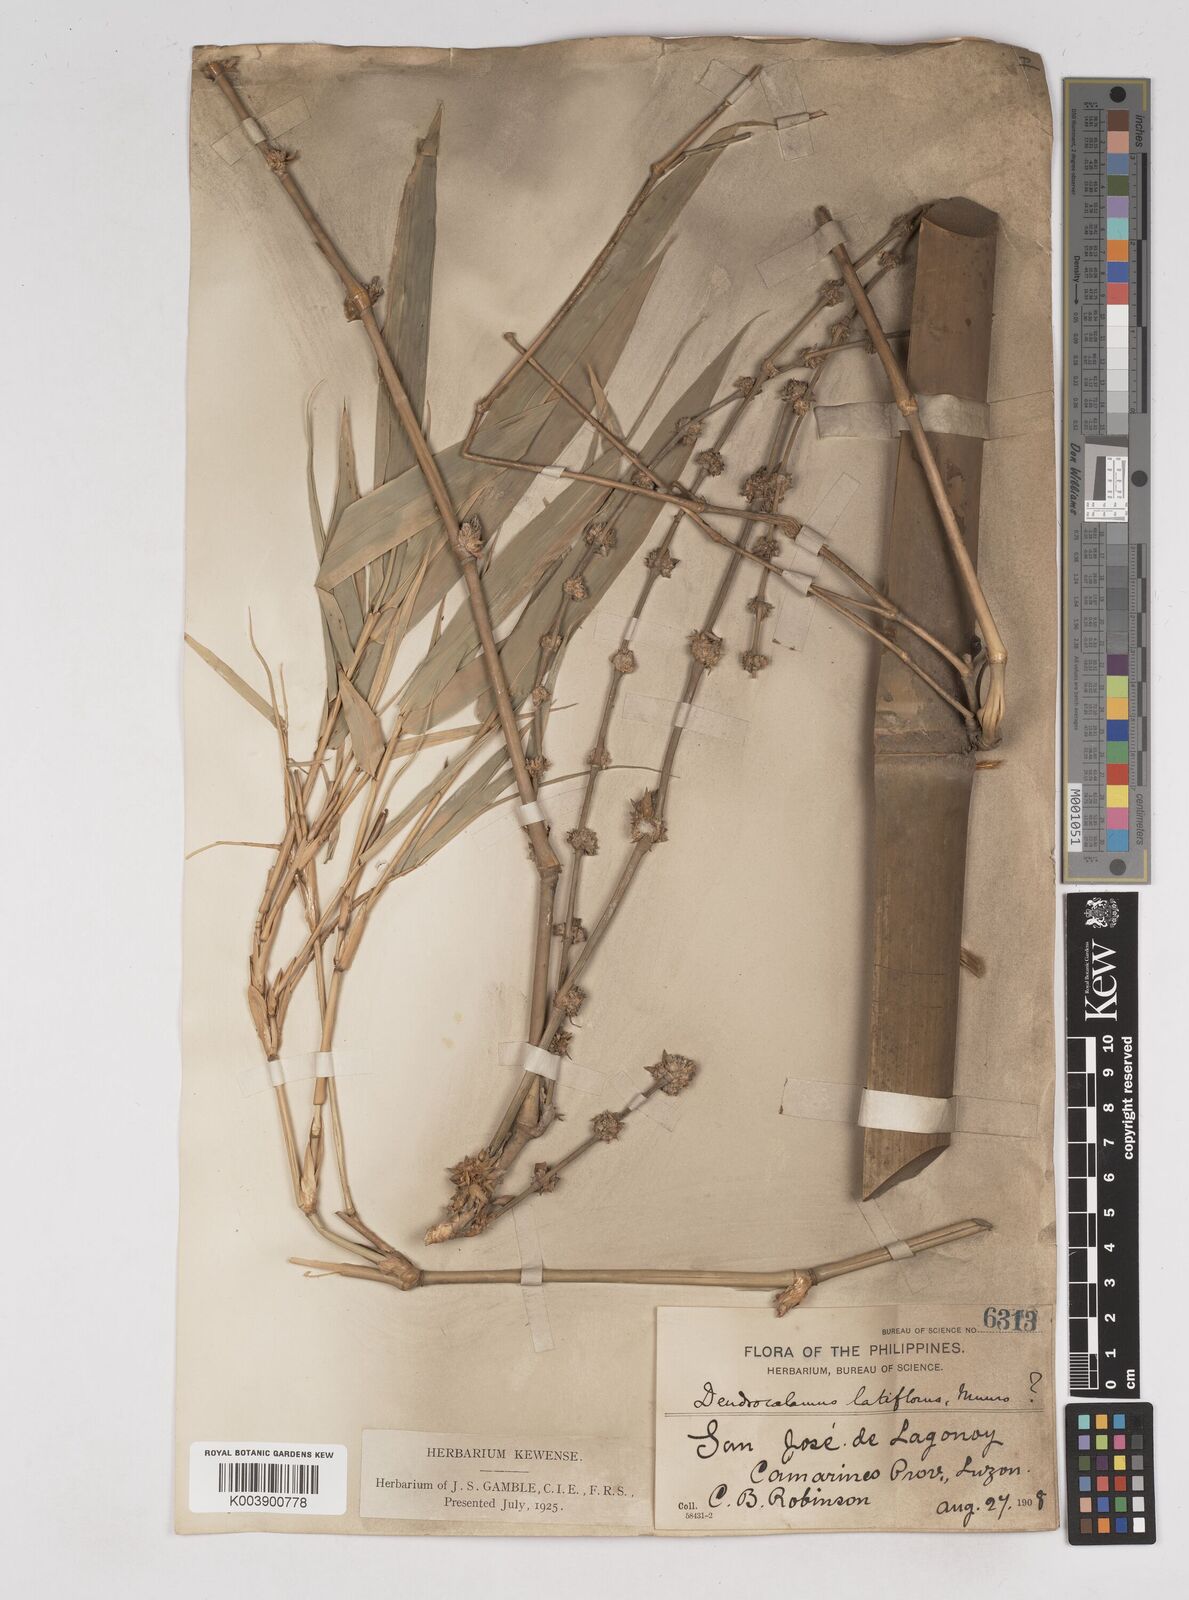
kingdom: Plantae
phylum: Tracheophyta
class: Liliopsida
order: Poales
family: Poaceae
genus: Gigantochloa
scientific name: Gigantochloa levis
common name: Smooth-shoot gigantochloa
